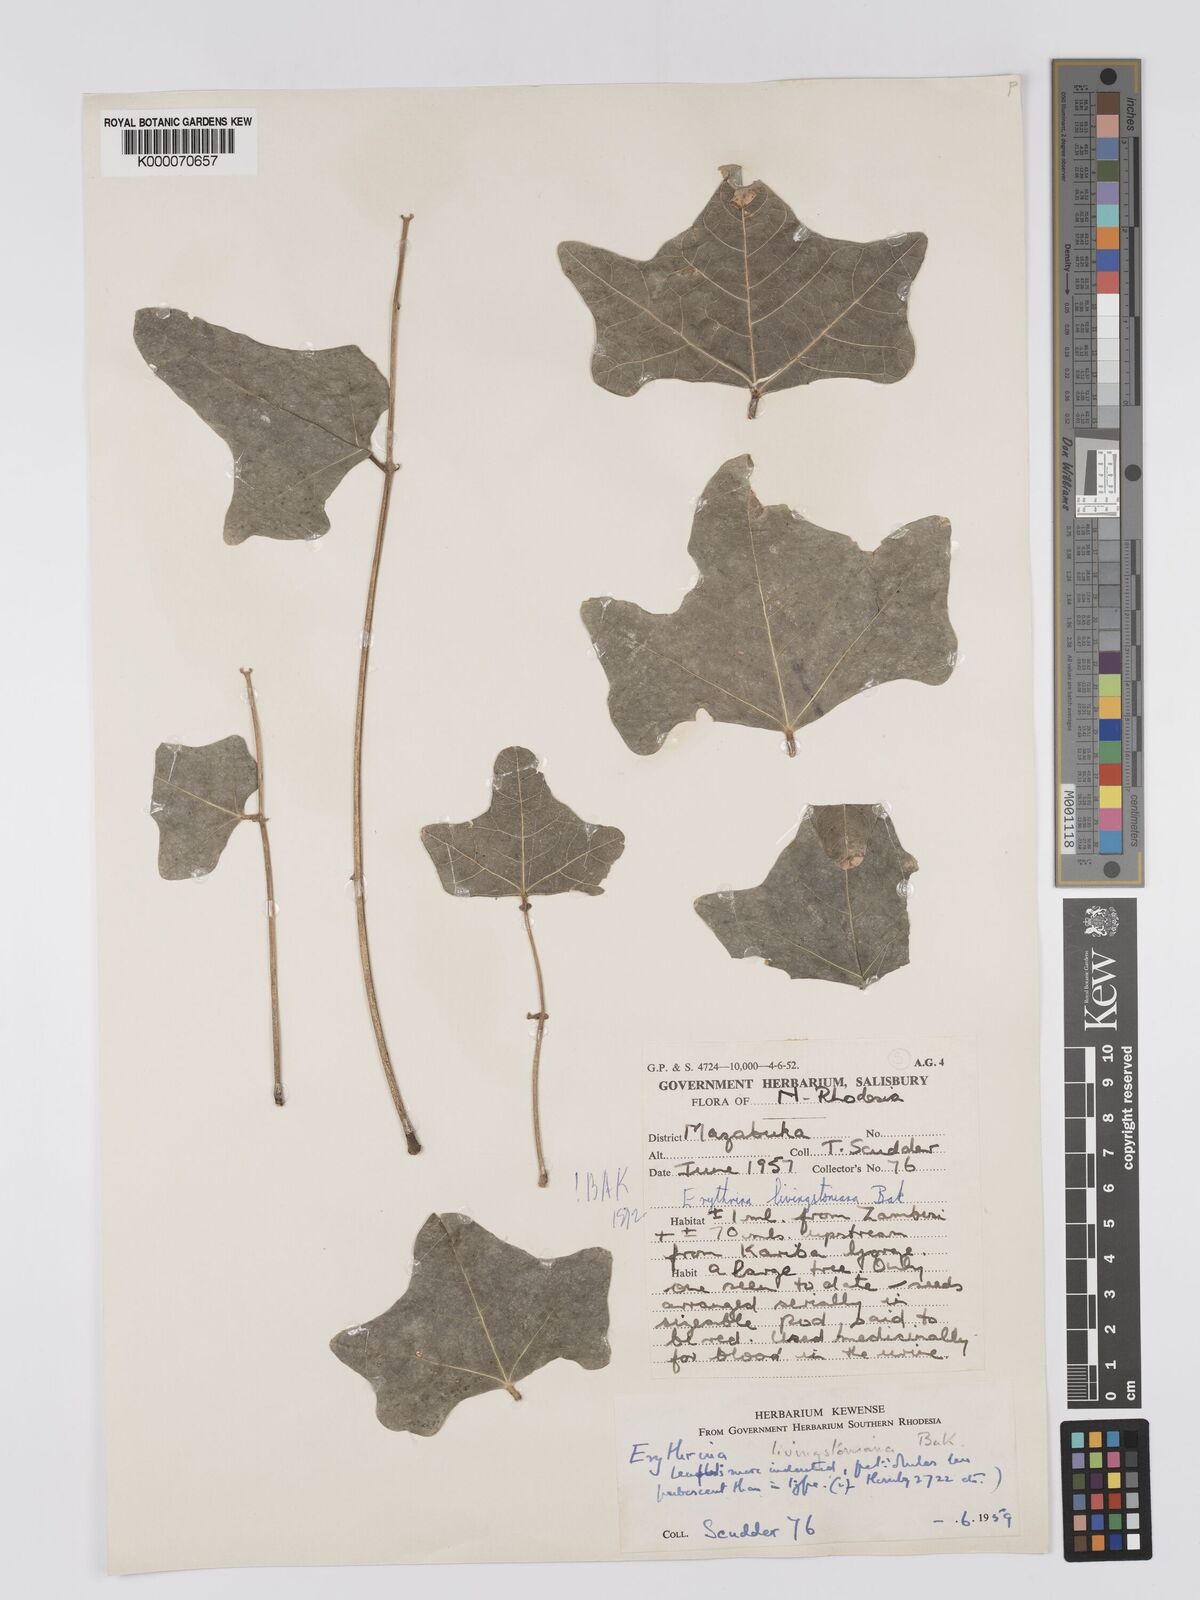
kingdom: Plantae
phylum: Tracheophyta
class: Magnoliopsida
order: Fabales
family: Fabaceae
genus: Erythrina
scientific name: Erythrina
